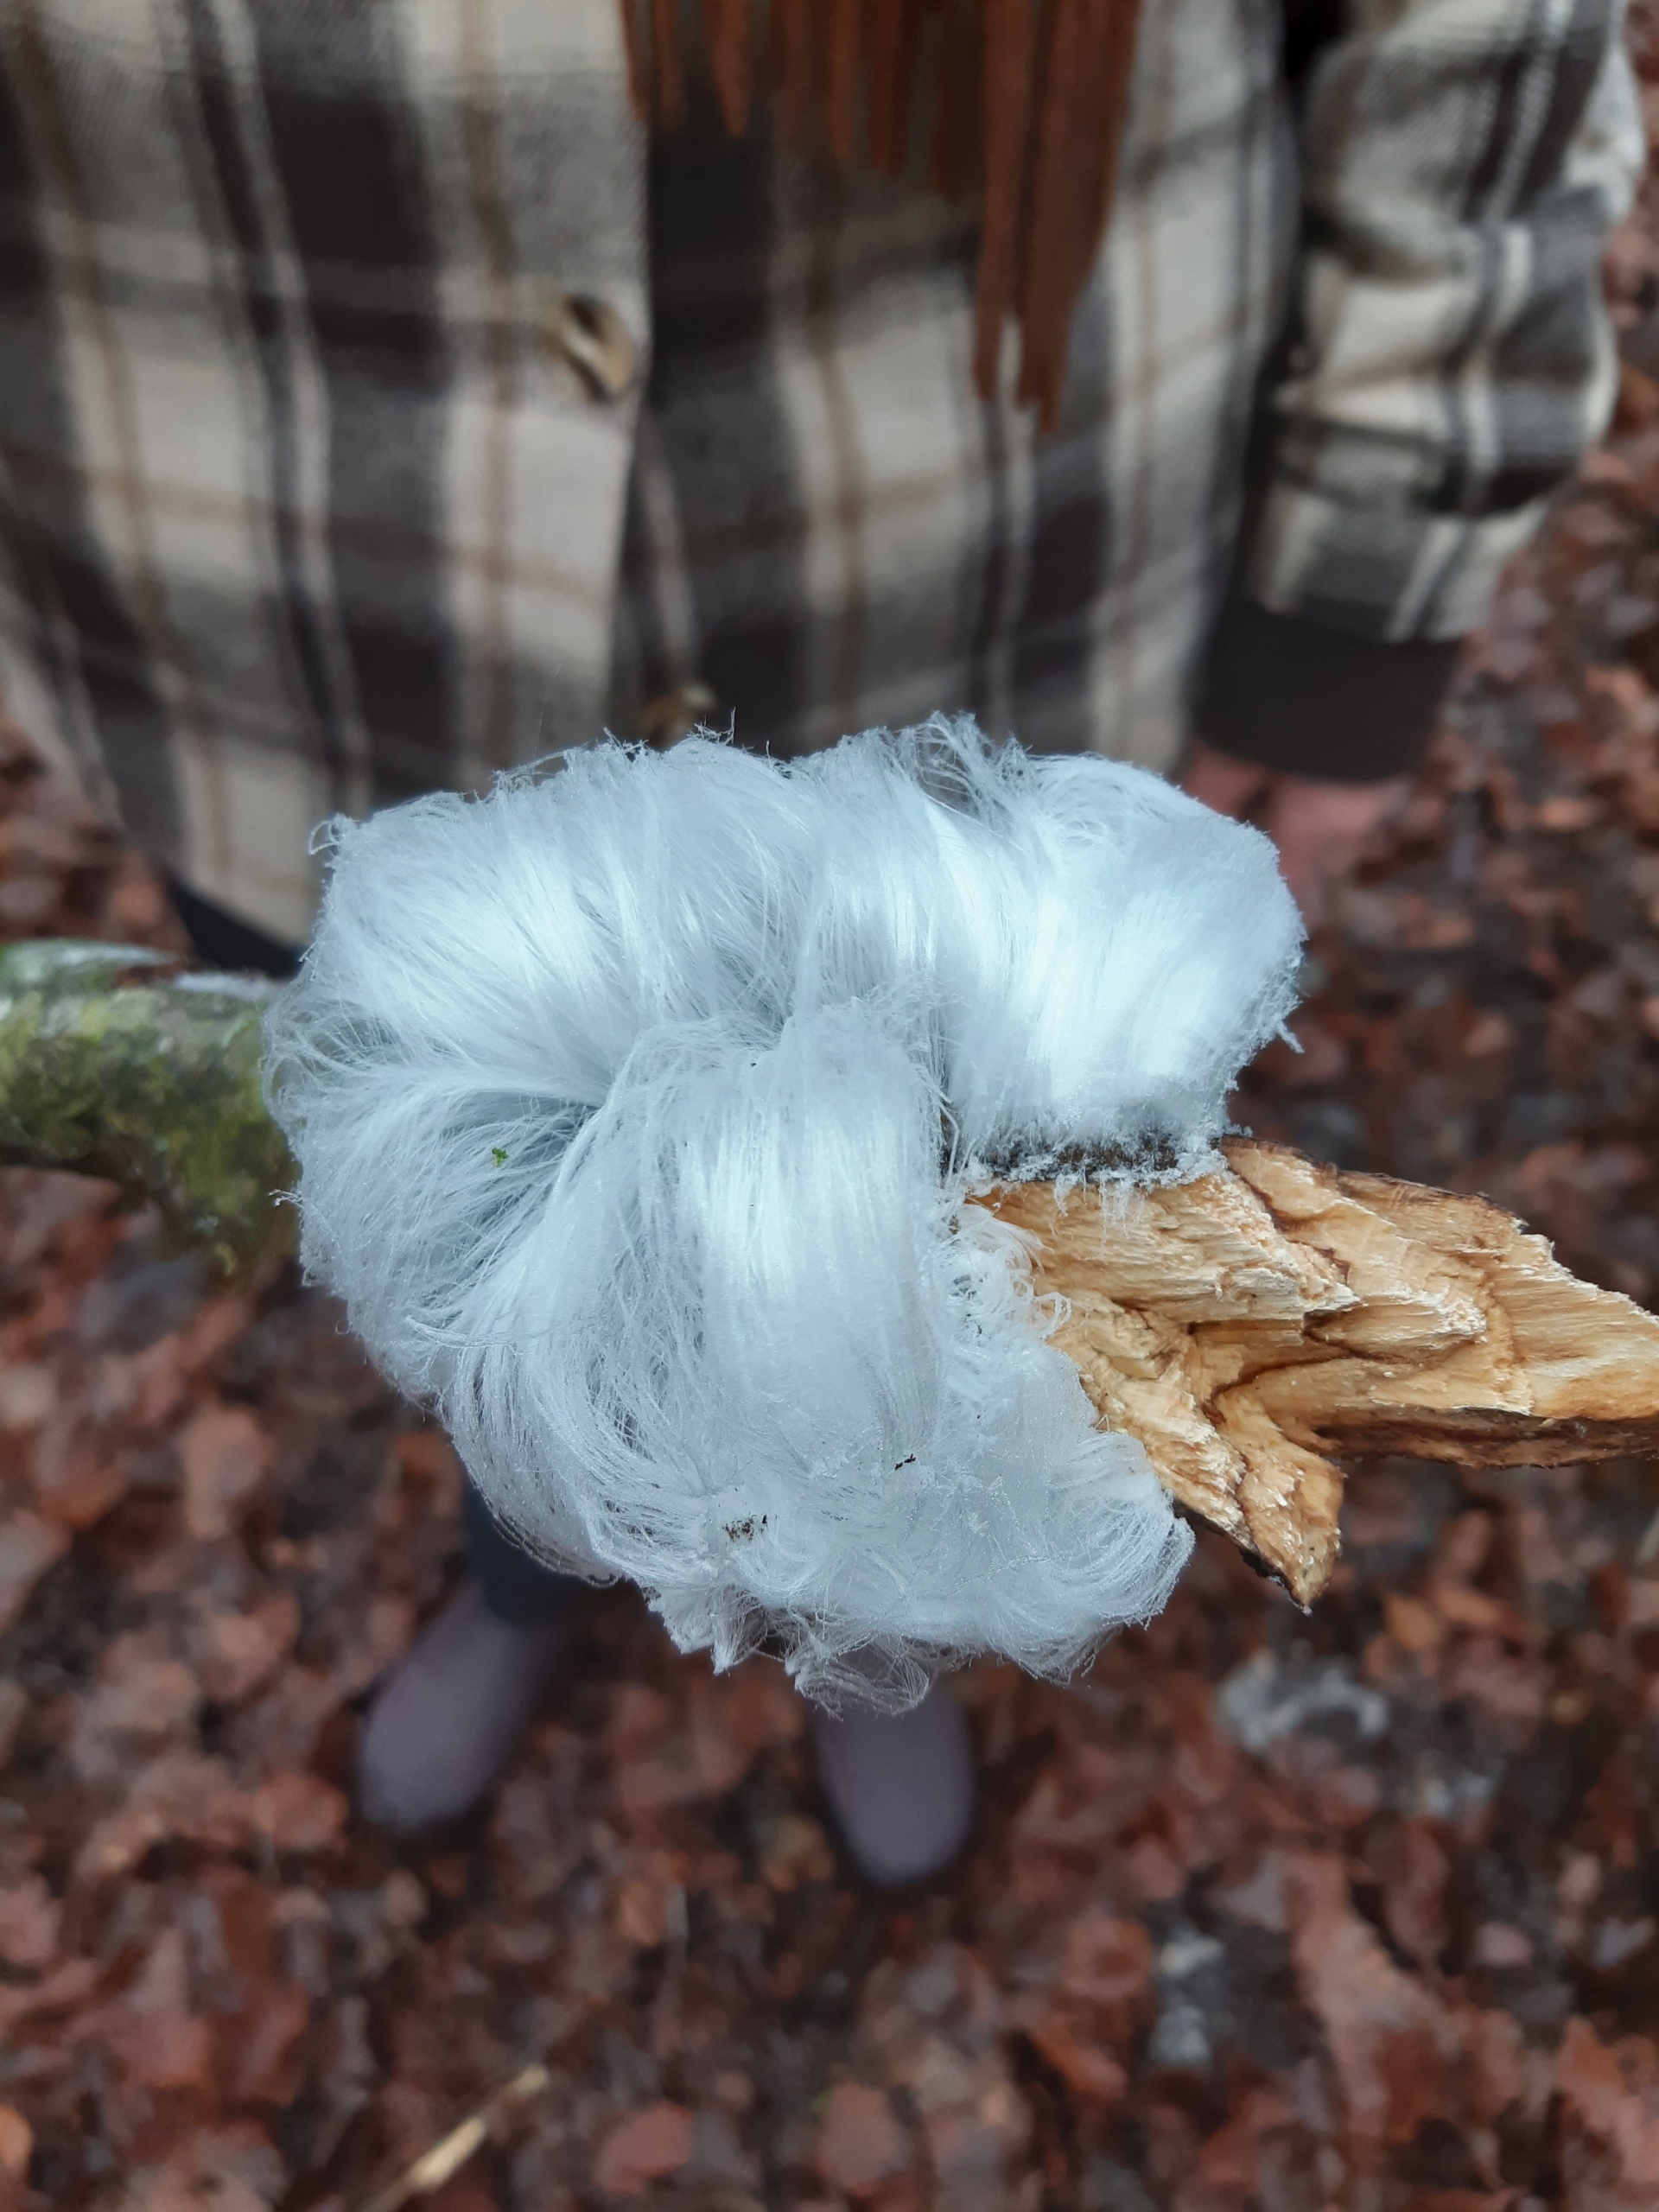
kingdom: Fungi
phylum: Basidiomycota
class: Tremellomycetes
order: Tremellales
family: Exidiaceae
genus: Exidiopsis
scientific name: Exidiopsis effusa
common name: Smuk bævrehinde
